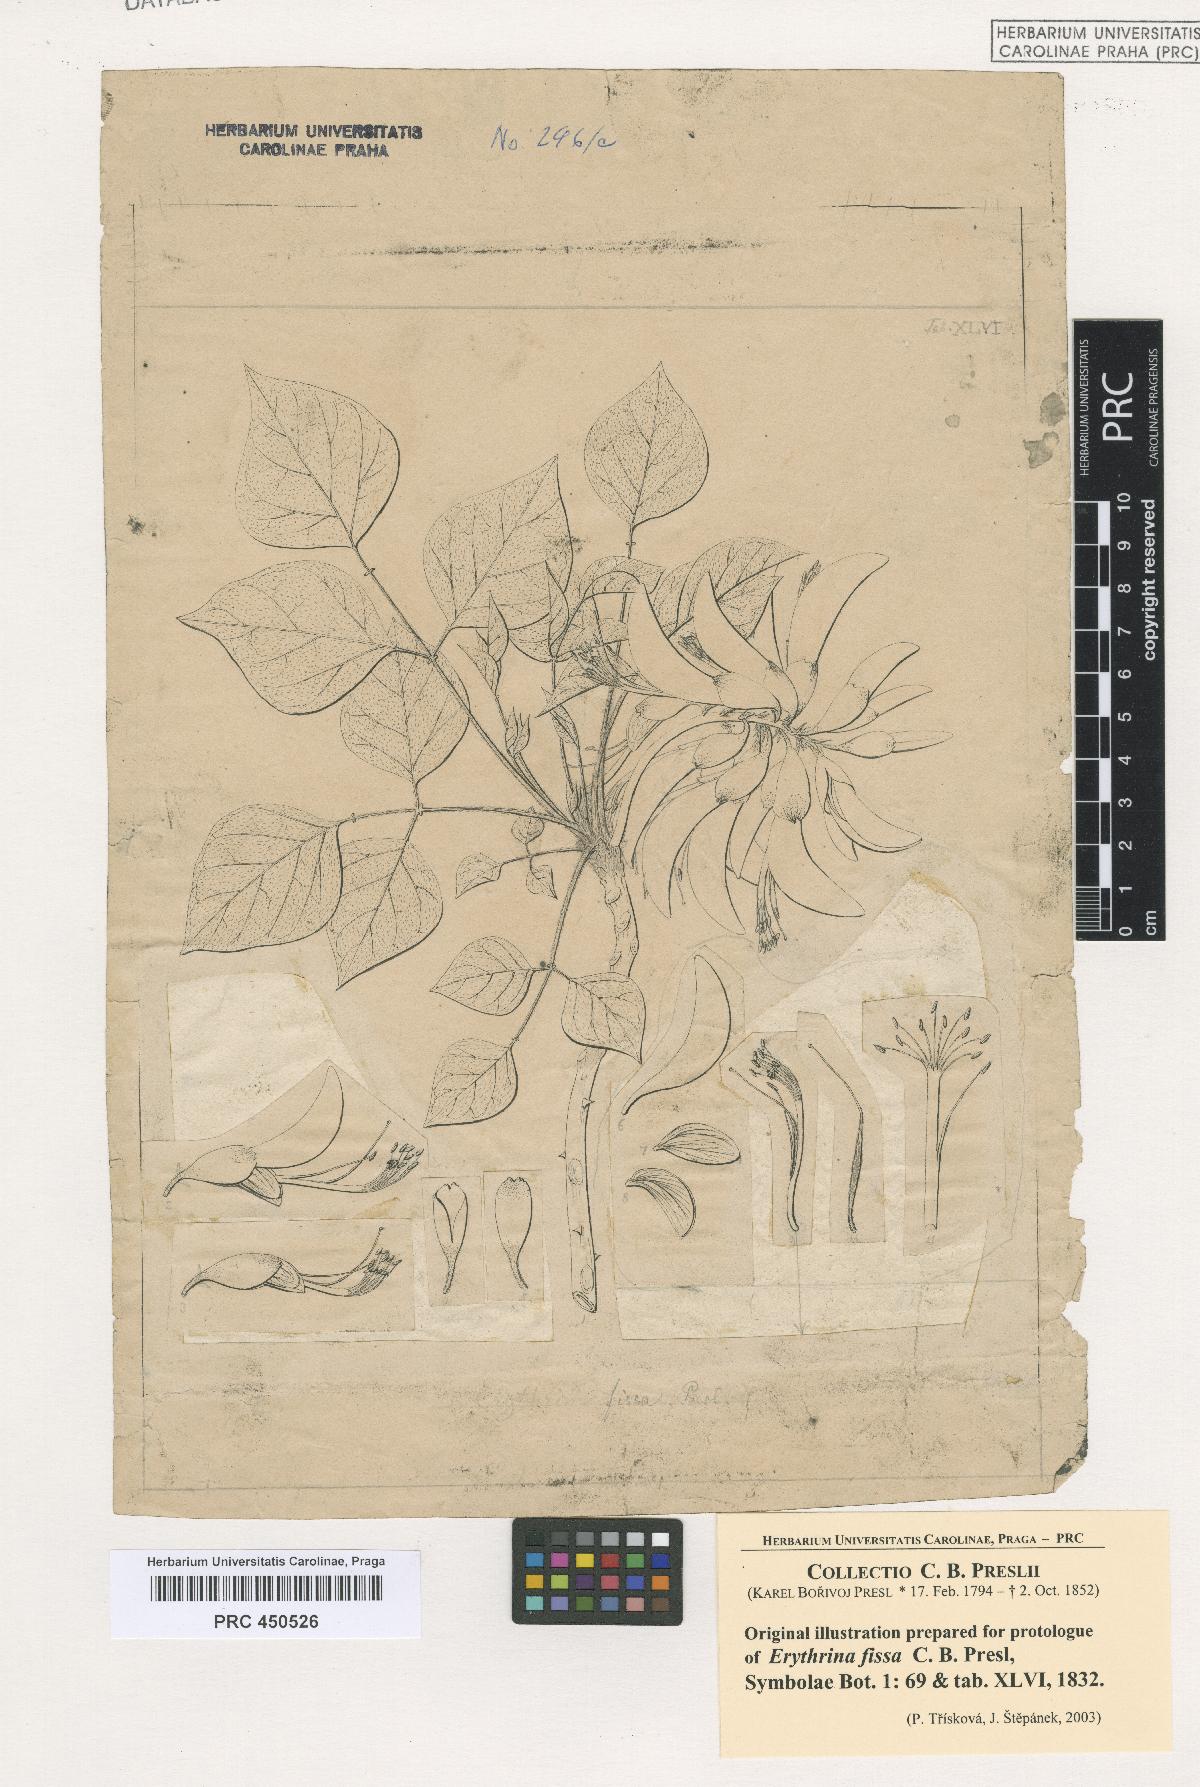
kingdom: Plantae
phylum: Tracheophyta
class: Magnoliopsida
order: Fabales
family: Fabaceae
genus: Erythrina
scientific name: Erythrina caffra
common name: Coast coral tree
